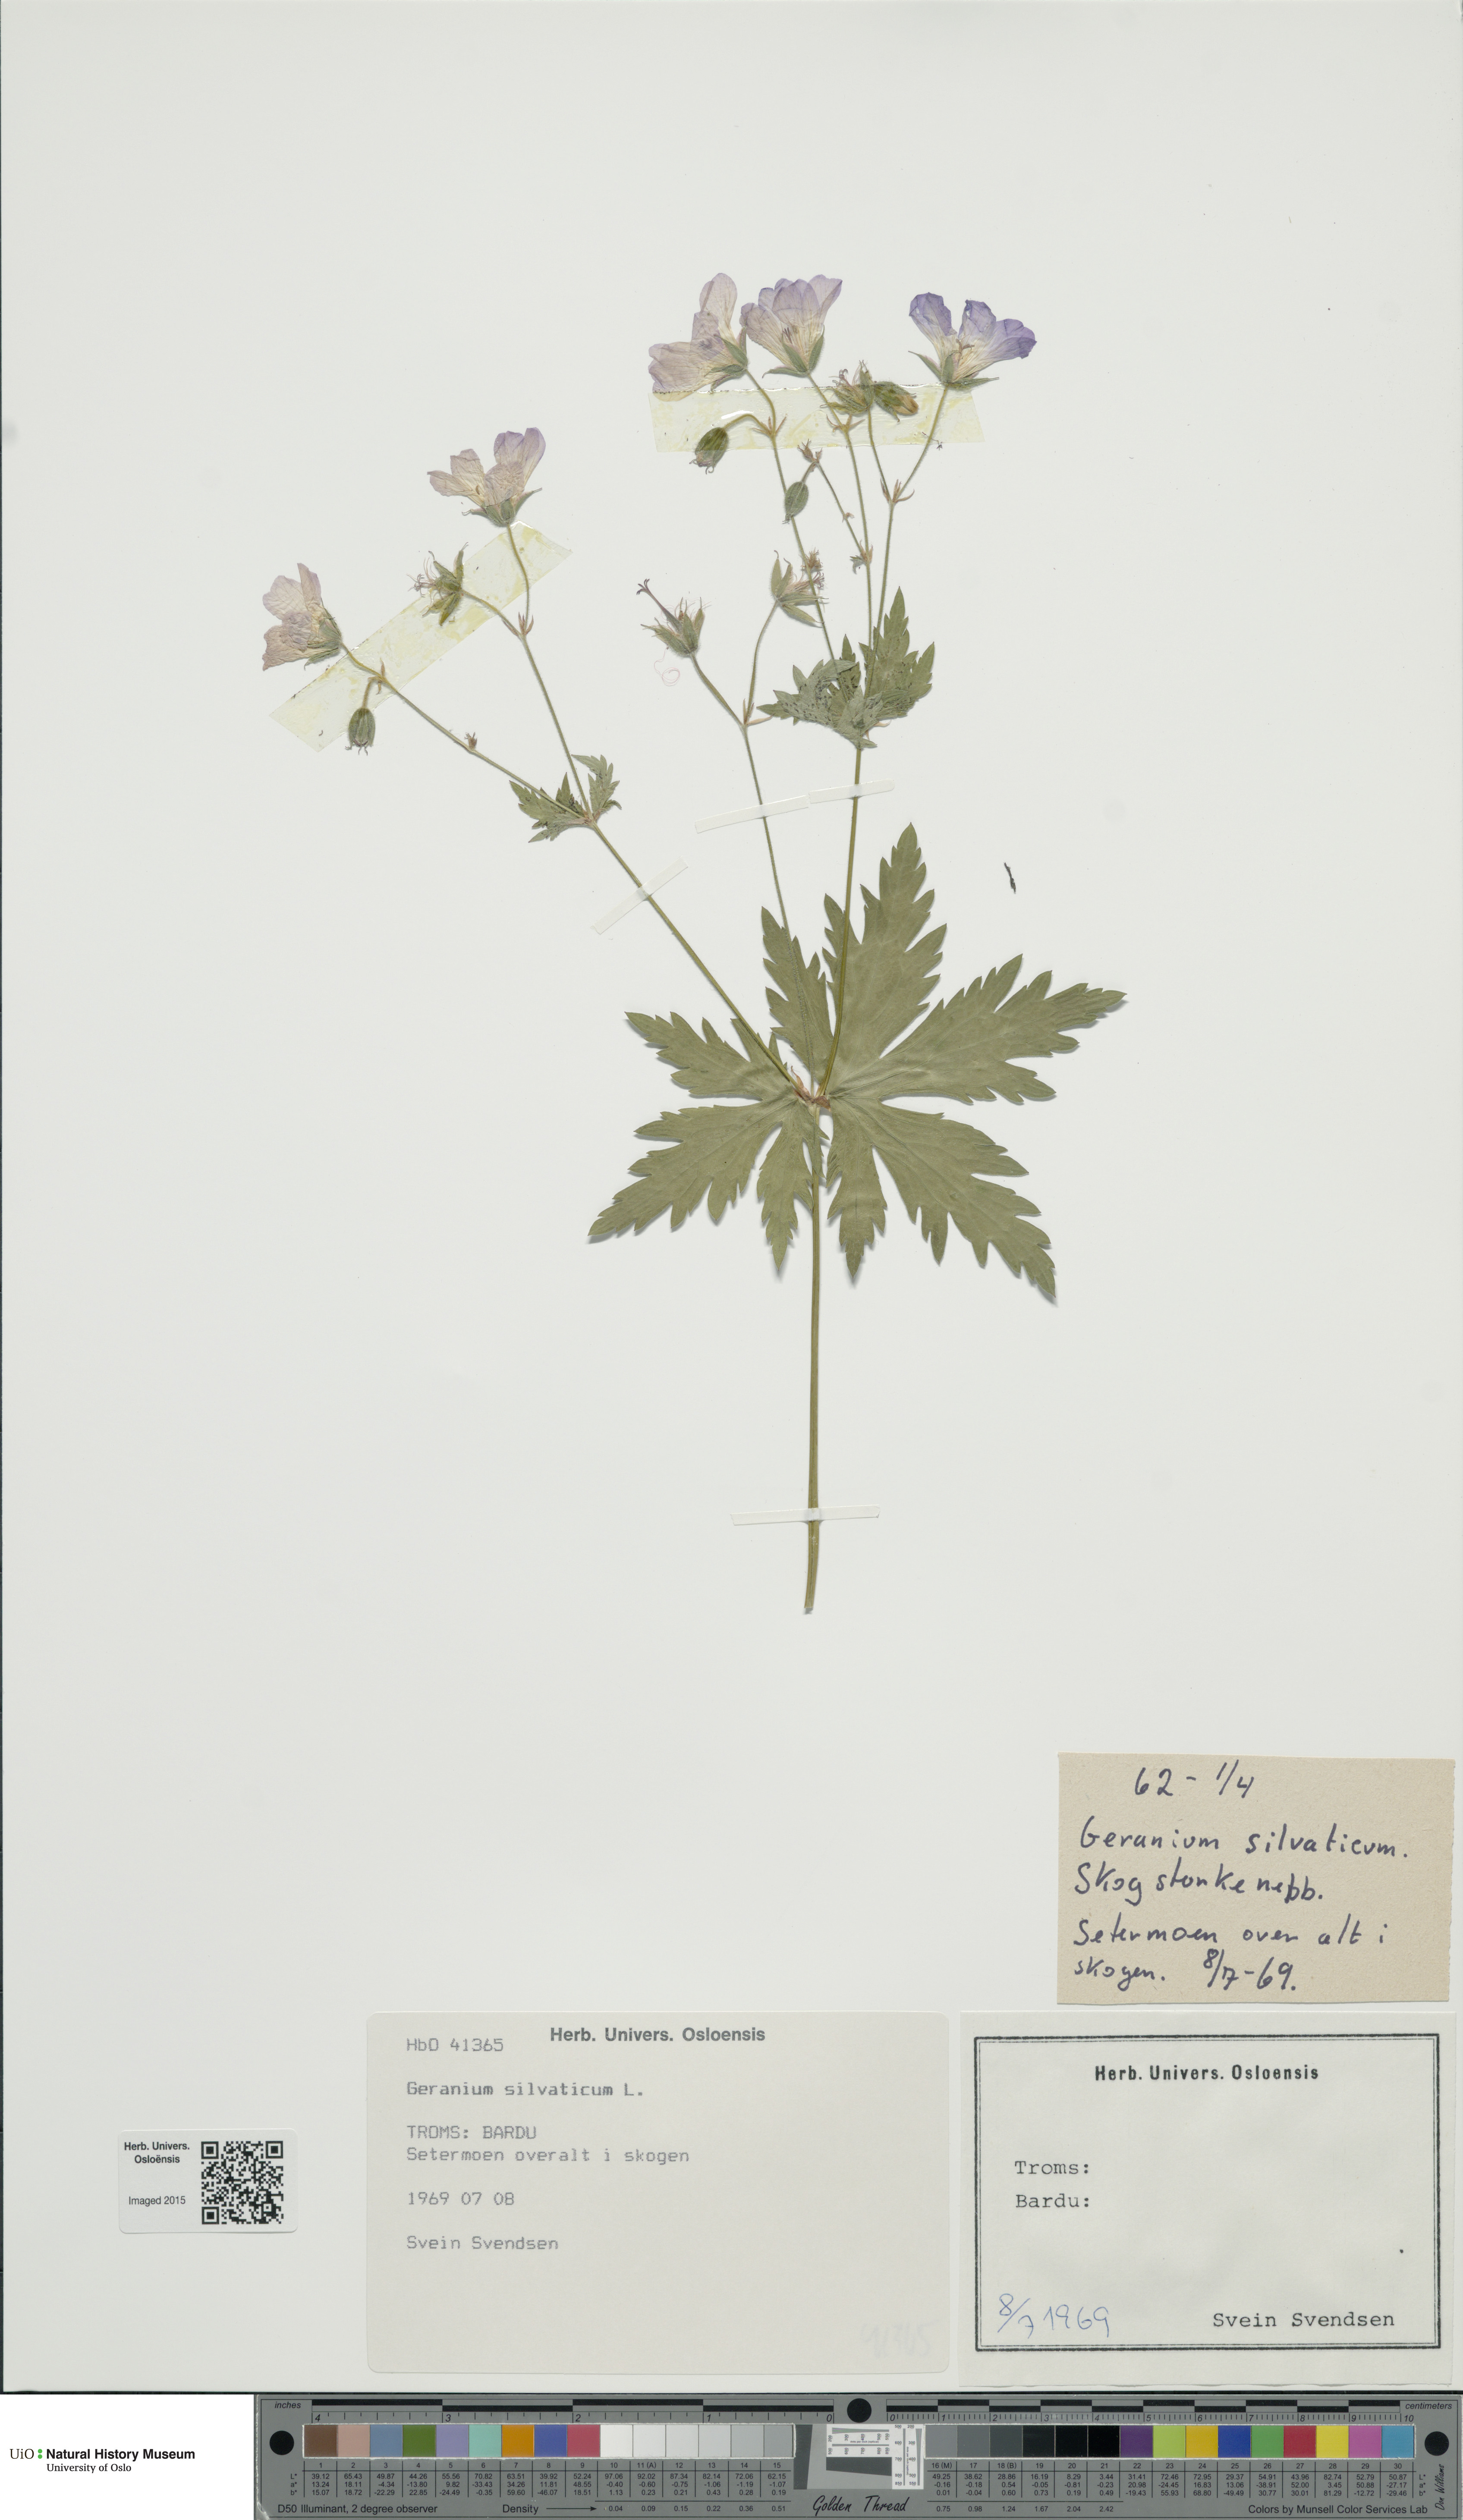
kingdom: Plantae
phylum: Tracheophyta
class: Magnoliopsida
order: Geraniales
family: Geraniaceae
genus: Geranium
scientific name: Geranium sylvaticum
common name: Wood crane's-bill
